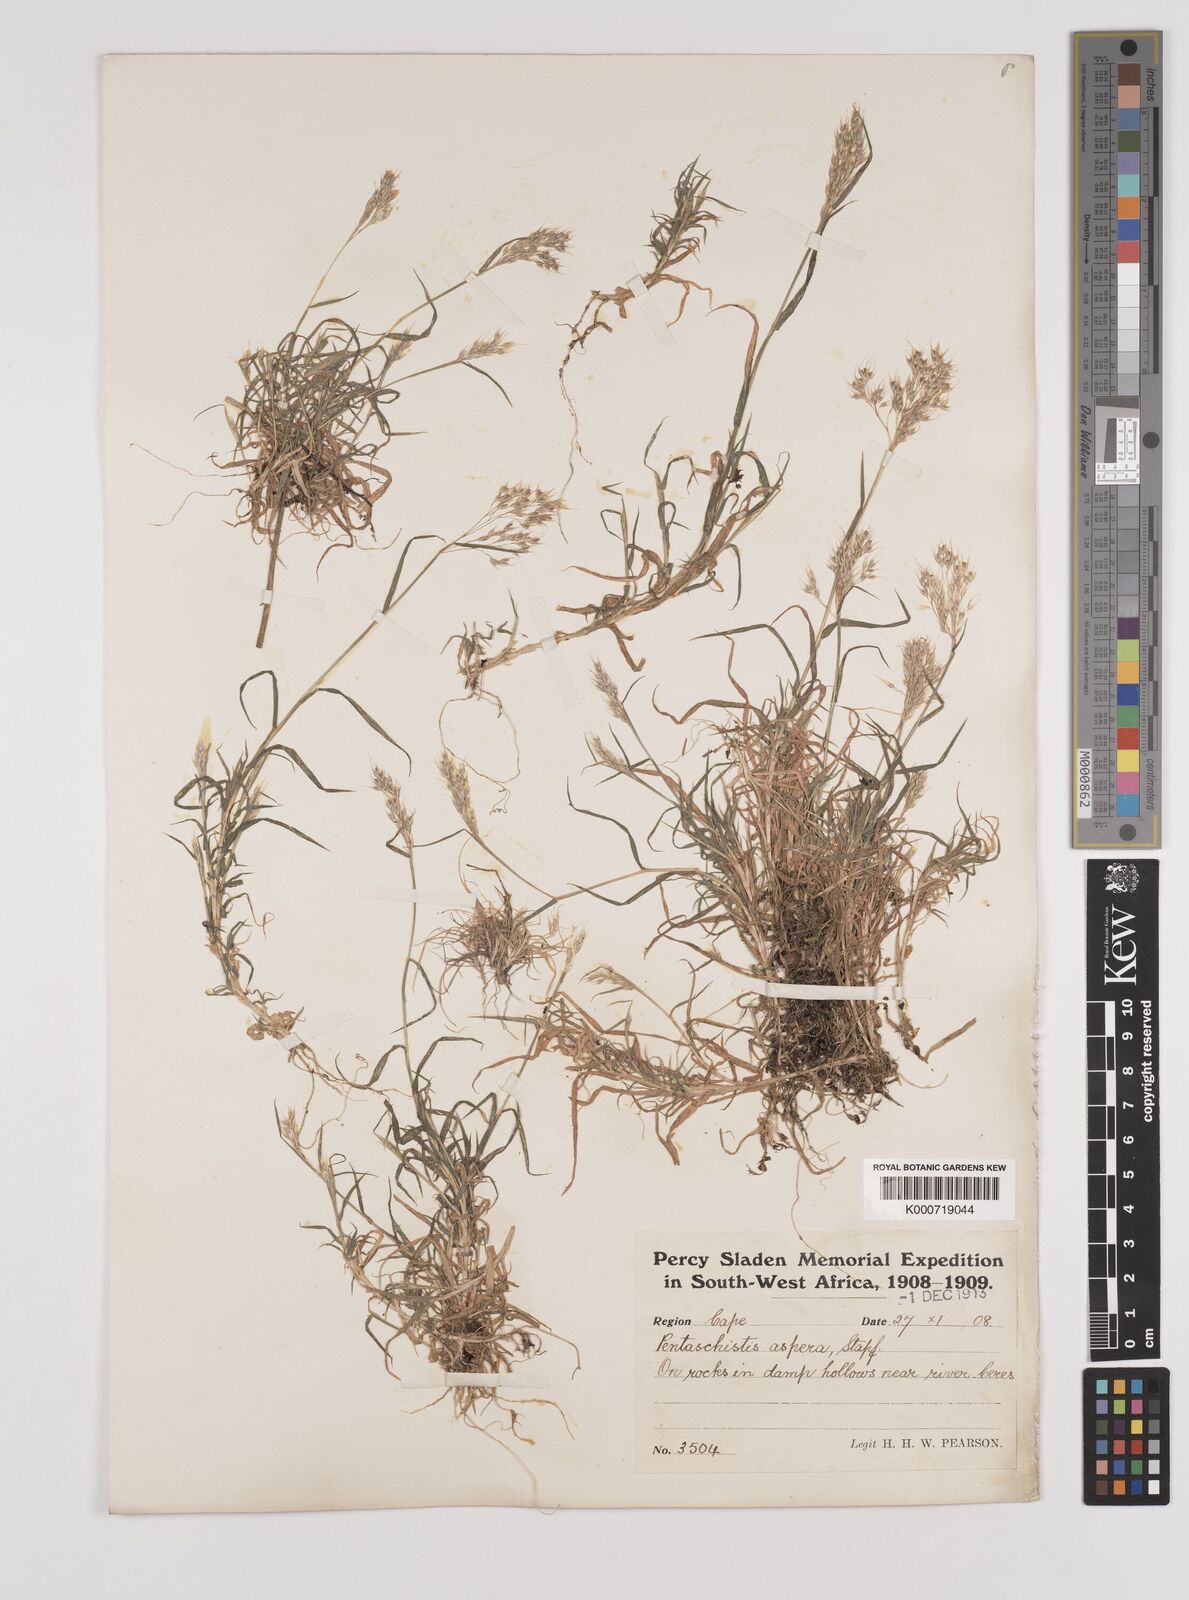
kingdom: Plantae
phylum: Tracheophyta
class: Liliopsida
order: Poales
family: Poaceae
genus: Pentameris
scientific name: Pentameris densifolia
